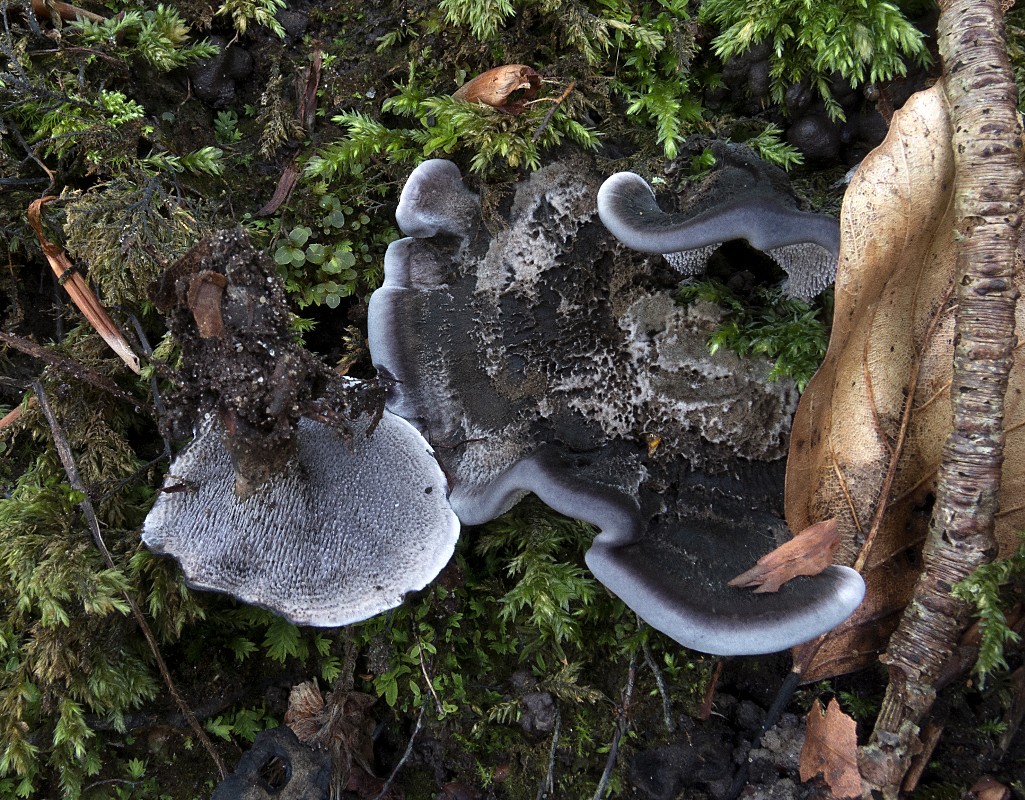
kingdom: Fungi
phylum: Basidiomycota
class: Agaricomycetes
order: Thelephorales
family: Thelephoraceae
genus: Phellodon
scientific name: Phellodon
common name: mørk duftpigsvamp
